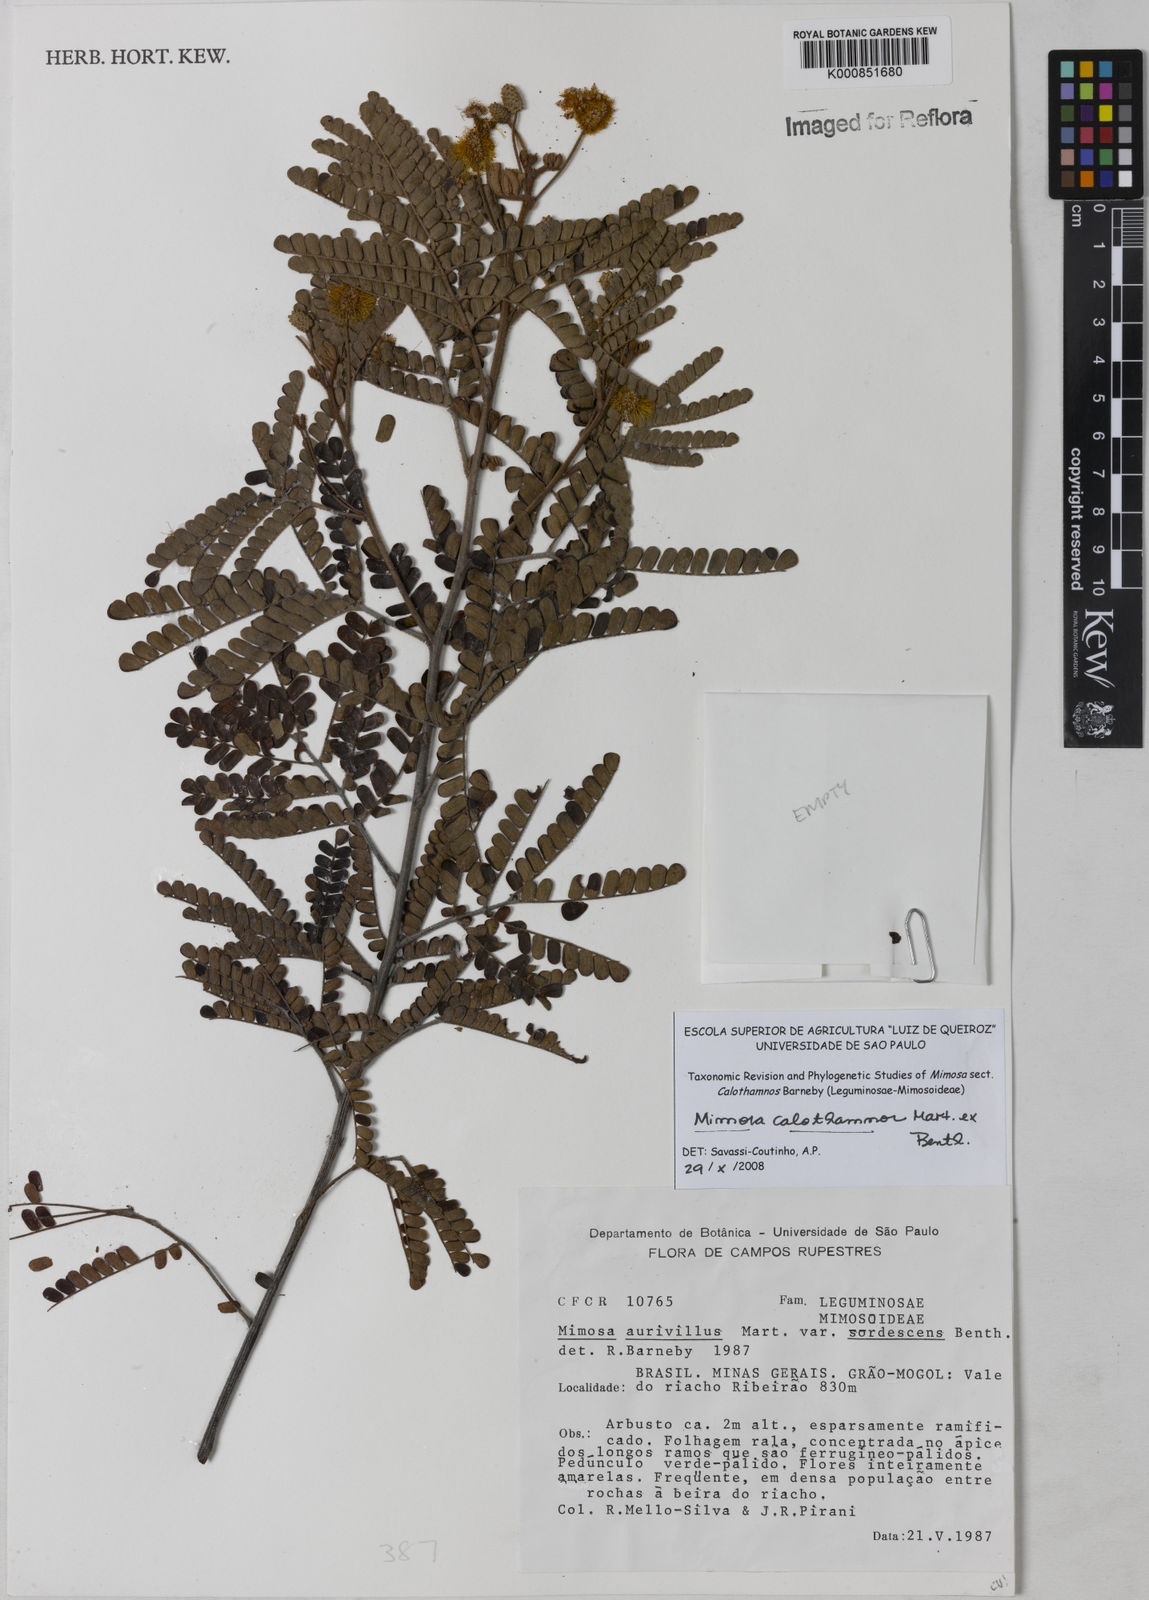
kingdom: Plantae
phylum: Tracheophyta
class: Magnoliopsida
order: Fabales
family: Fabaceae
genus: Mimosa
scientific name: Mimosa aurivillus
